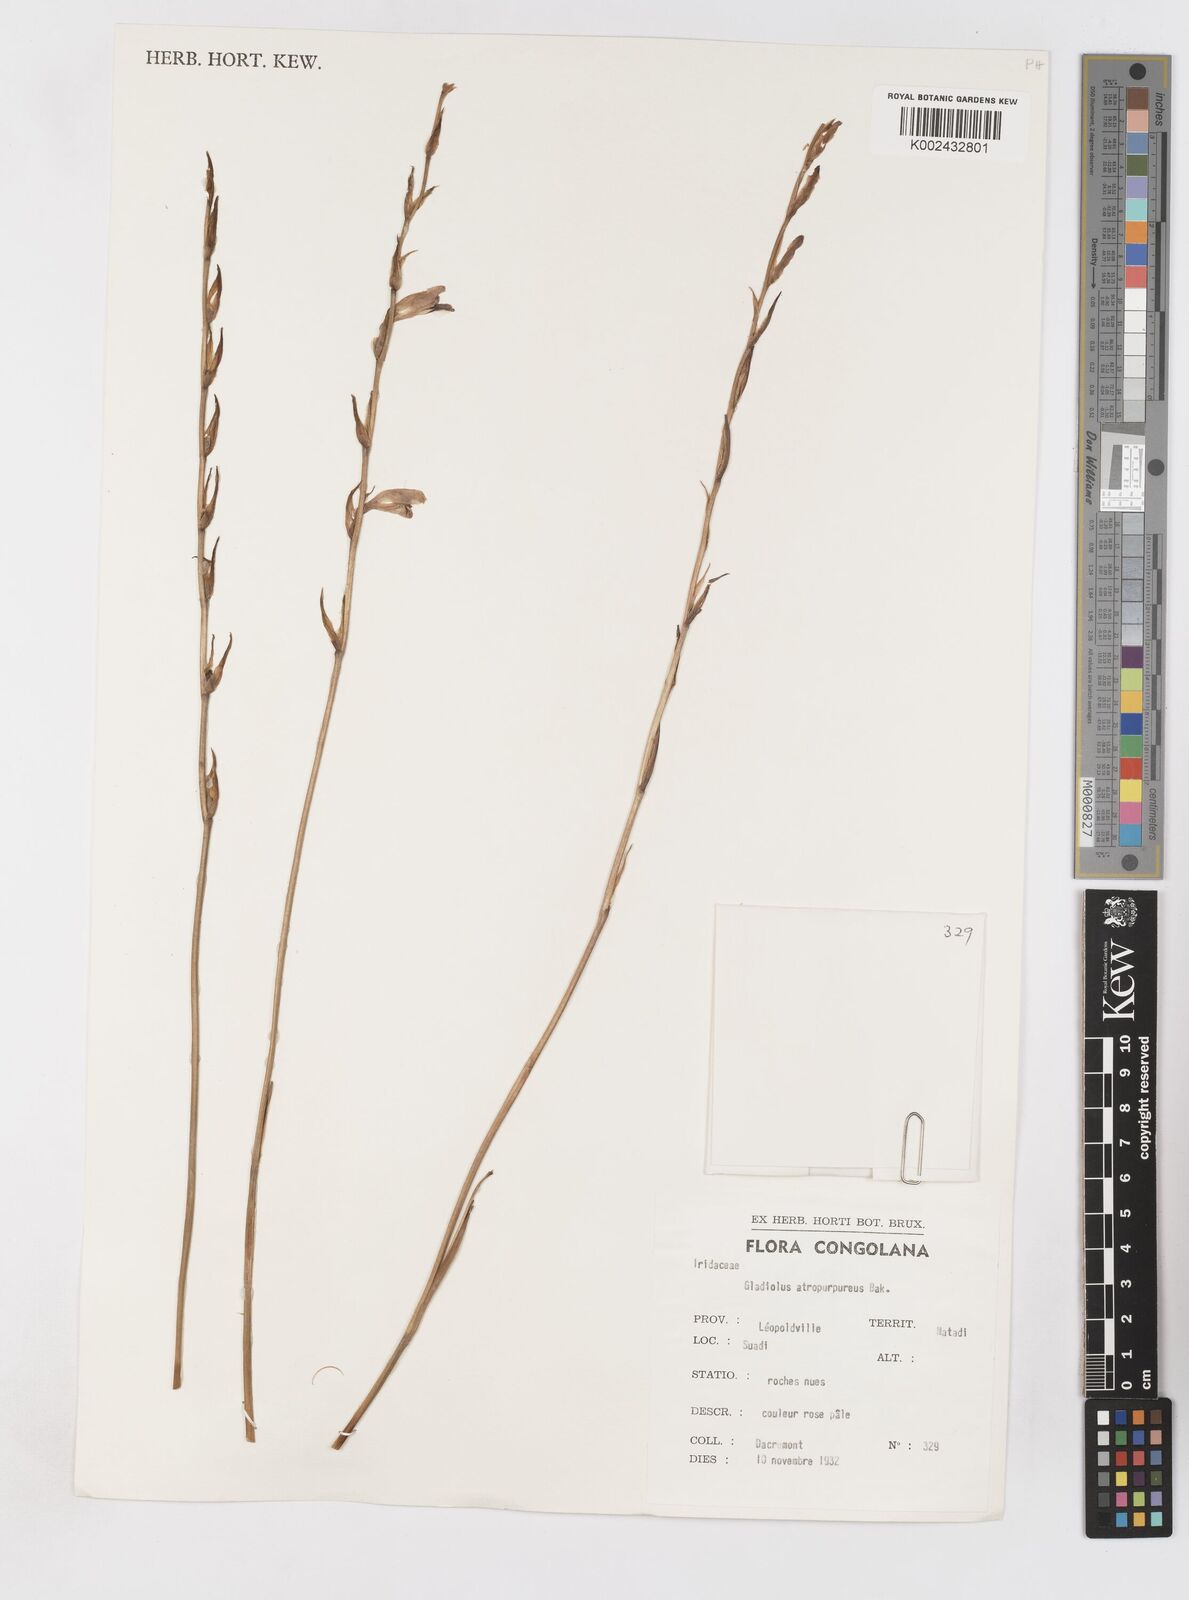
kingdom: Plantae
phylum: Tracheophyta
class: Liliopsida
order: Asparagales
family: Iridaceae
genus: Gladiolus
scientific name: Gladiolus atropurpureus
